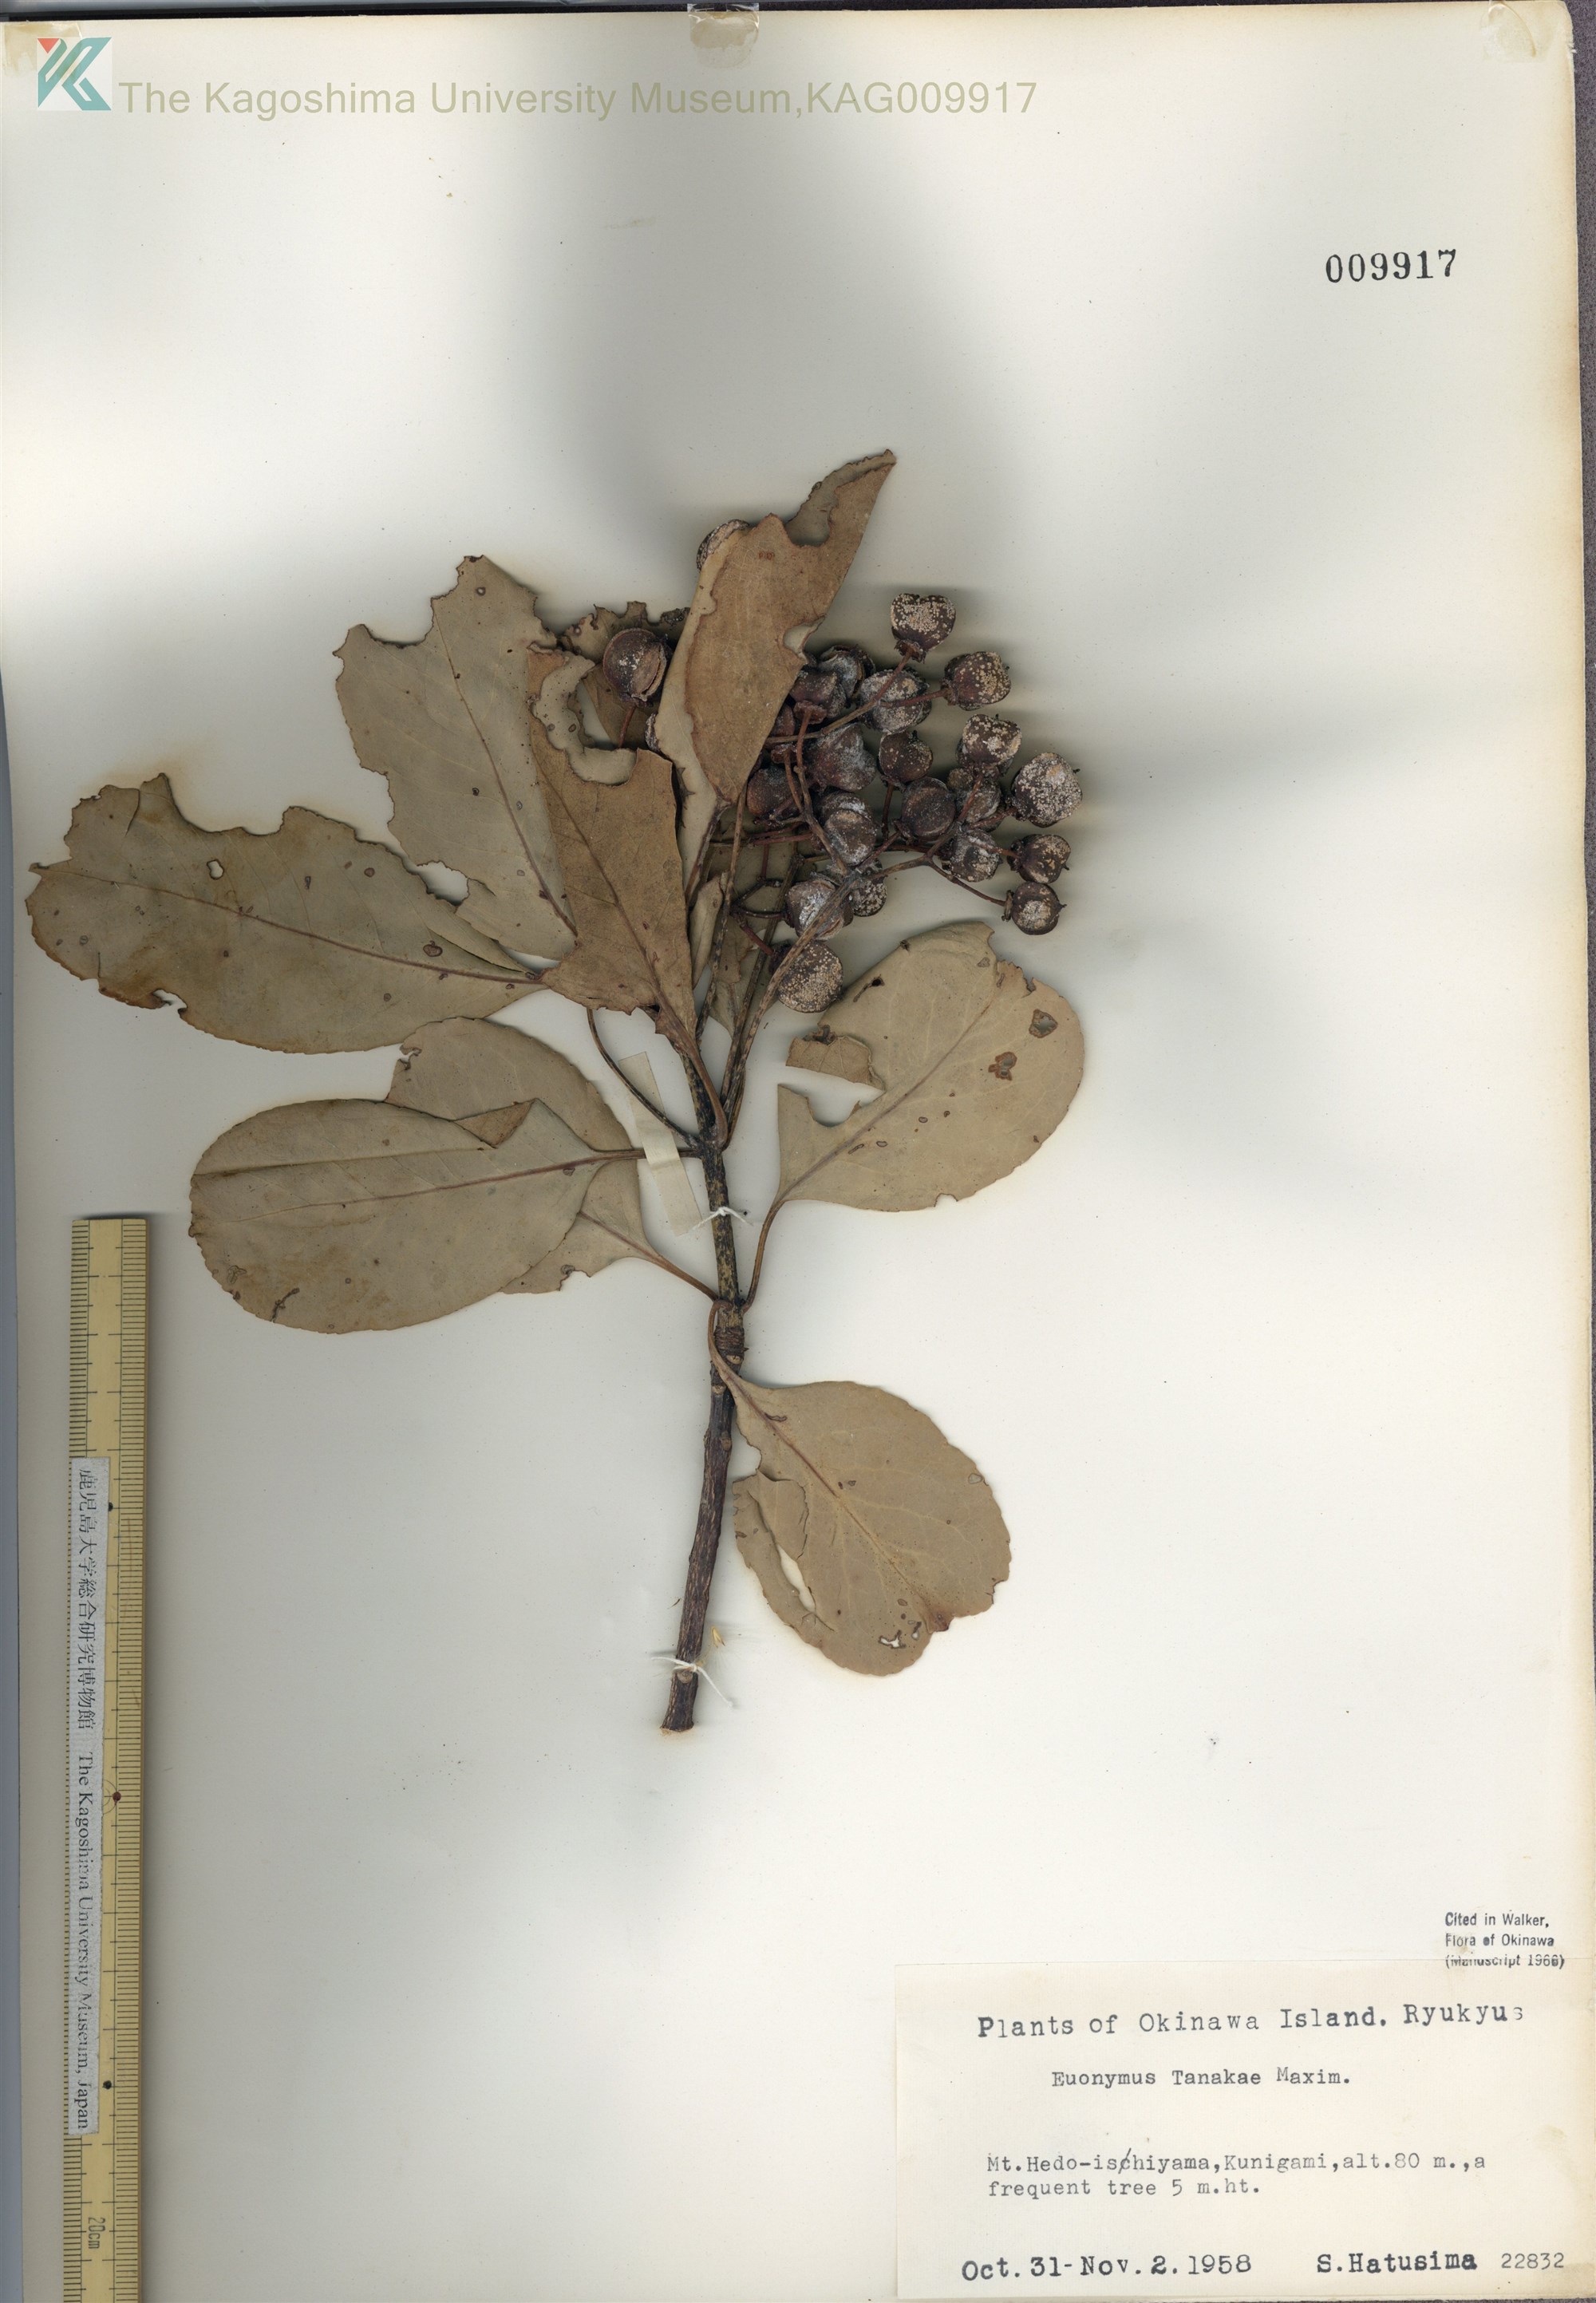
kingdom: Plantae
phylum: Tracheophyta
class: Magnoliopsida
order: Celastrales
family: Celastraceae
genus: Euonymus
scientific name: Euonymus carnosus
